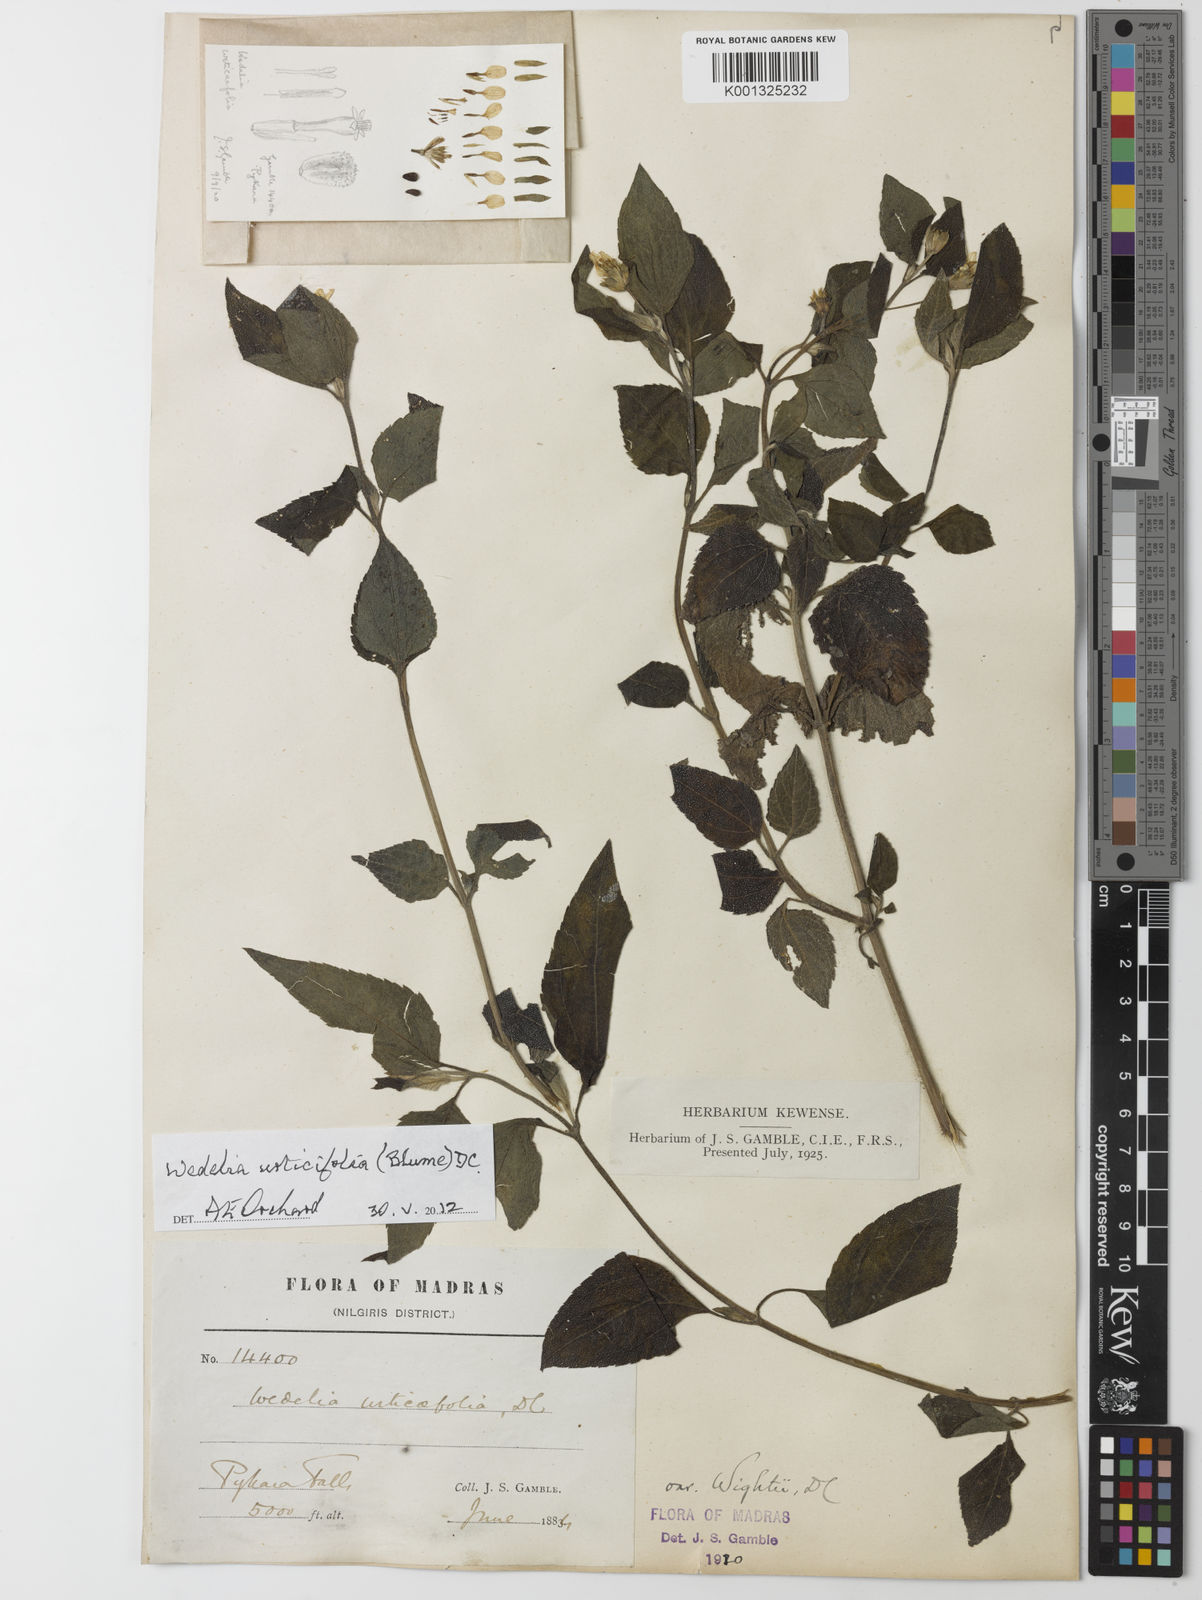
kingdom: Plantae
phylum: Tracheophyta
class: Magnoliopsida
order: Asterales
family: Asteraceae
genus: Lipoblepharis
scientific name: Lipoblepharis urticifolia
